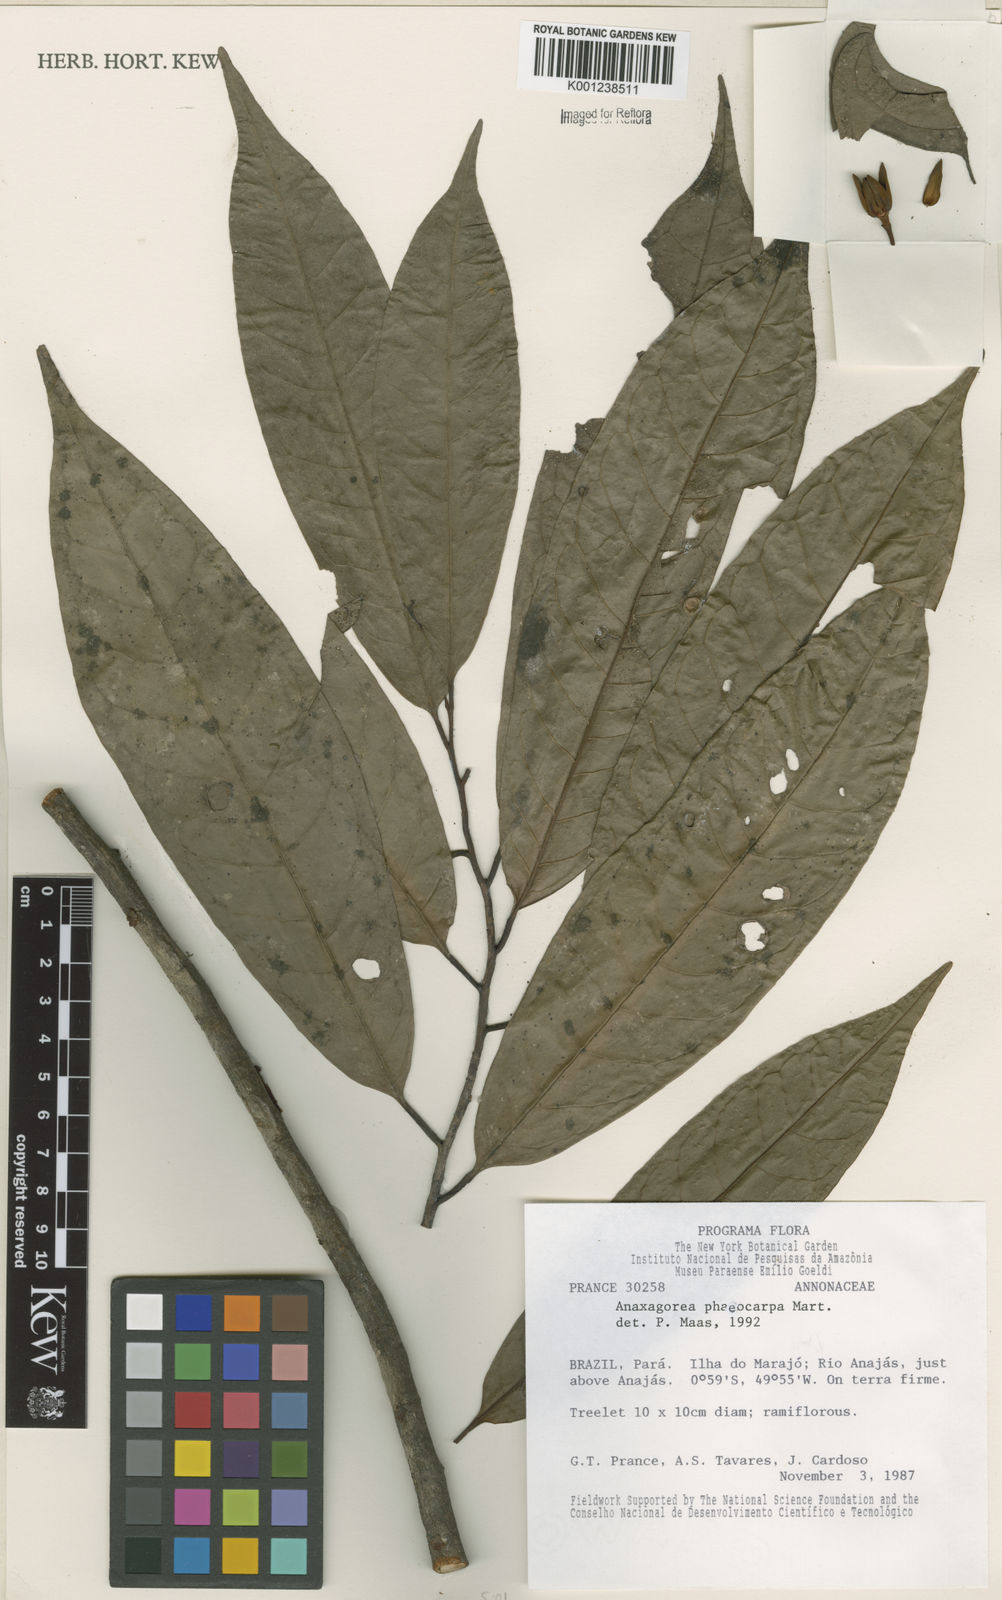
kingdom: Plantae
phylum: Tracheophyta
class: Magnoliopsida
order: Magnoliales
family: Annonaceae
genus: Anaxagorea
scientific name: Anaxagorea phaeocarpa
